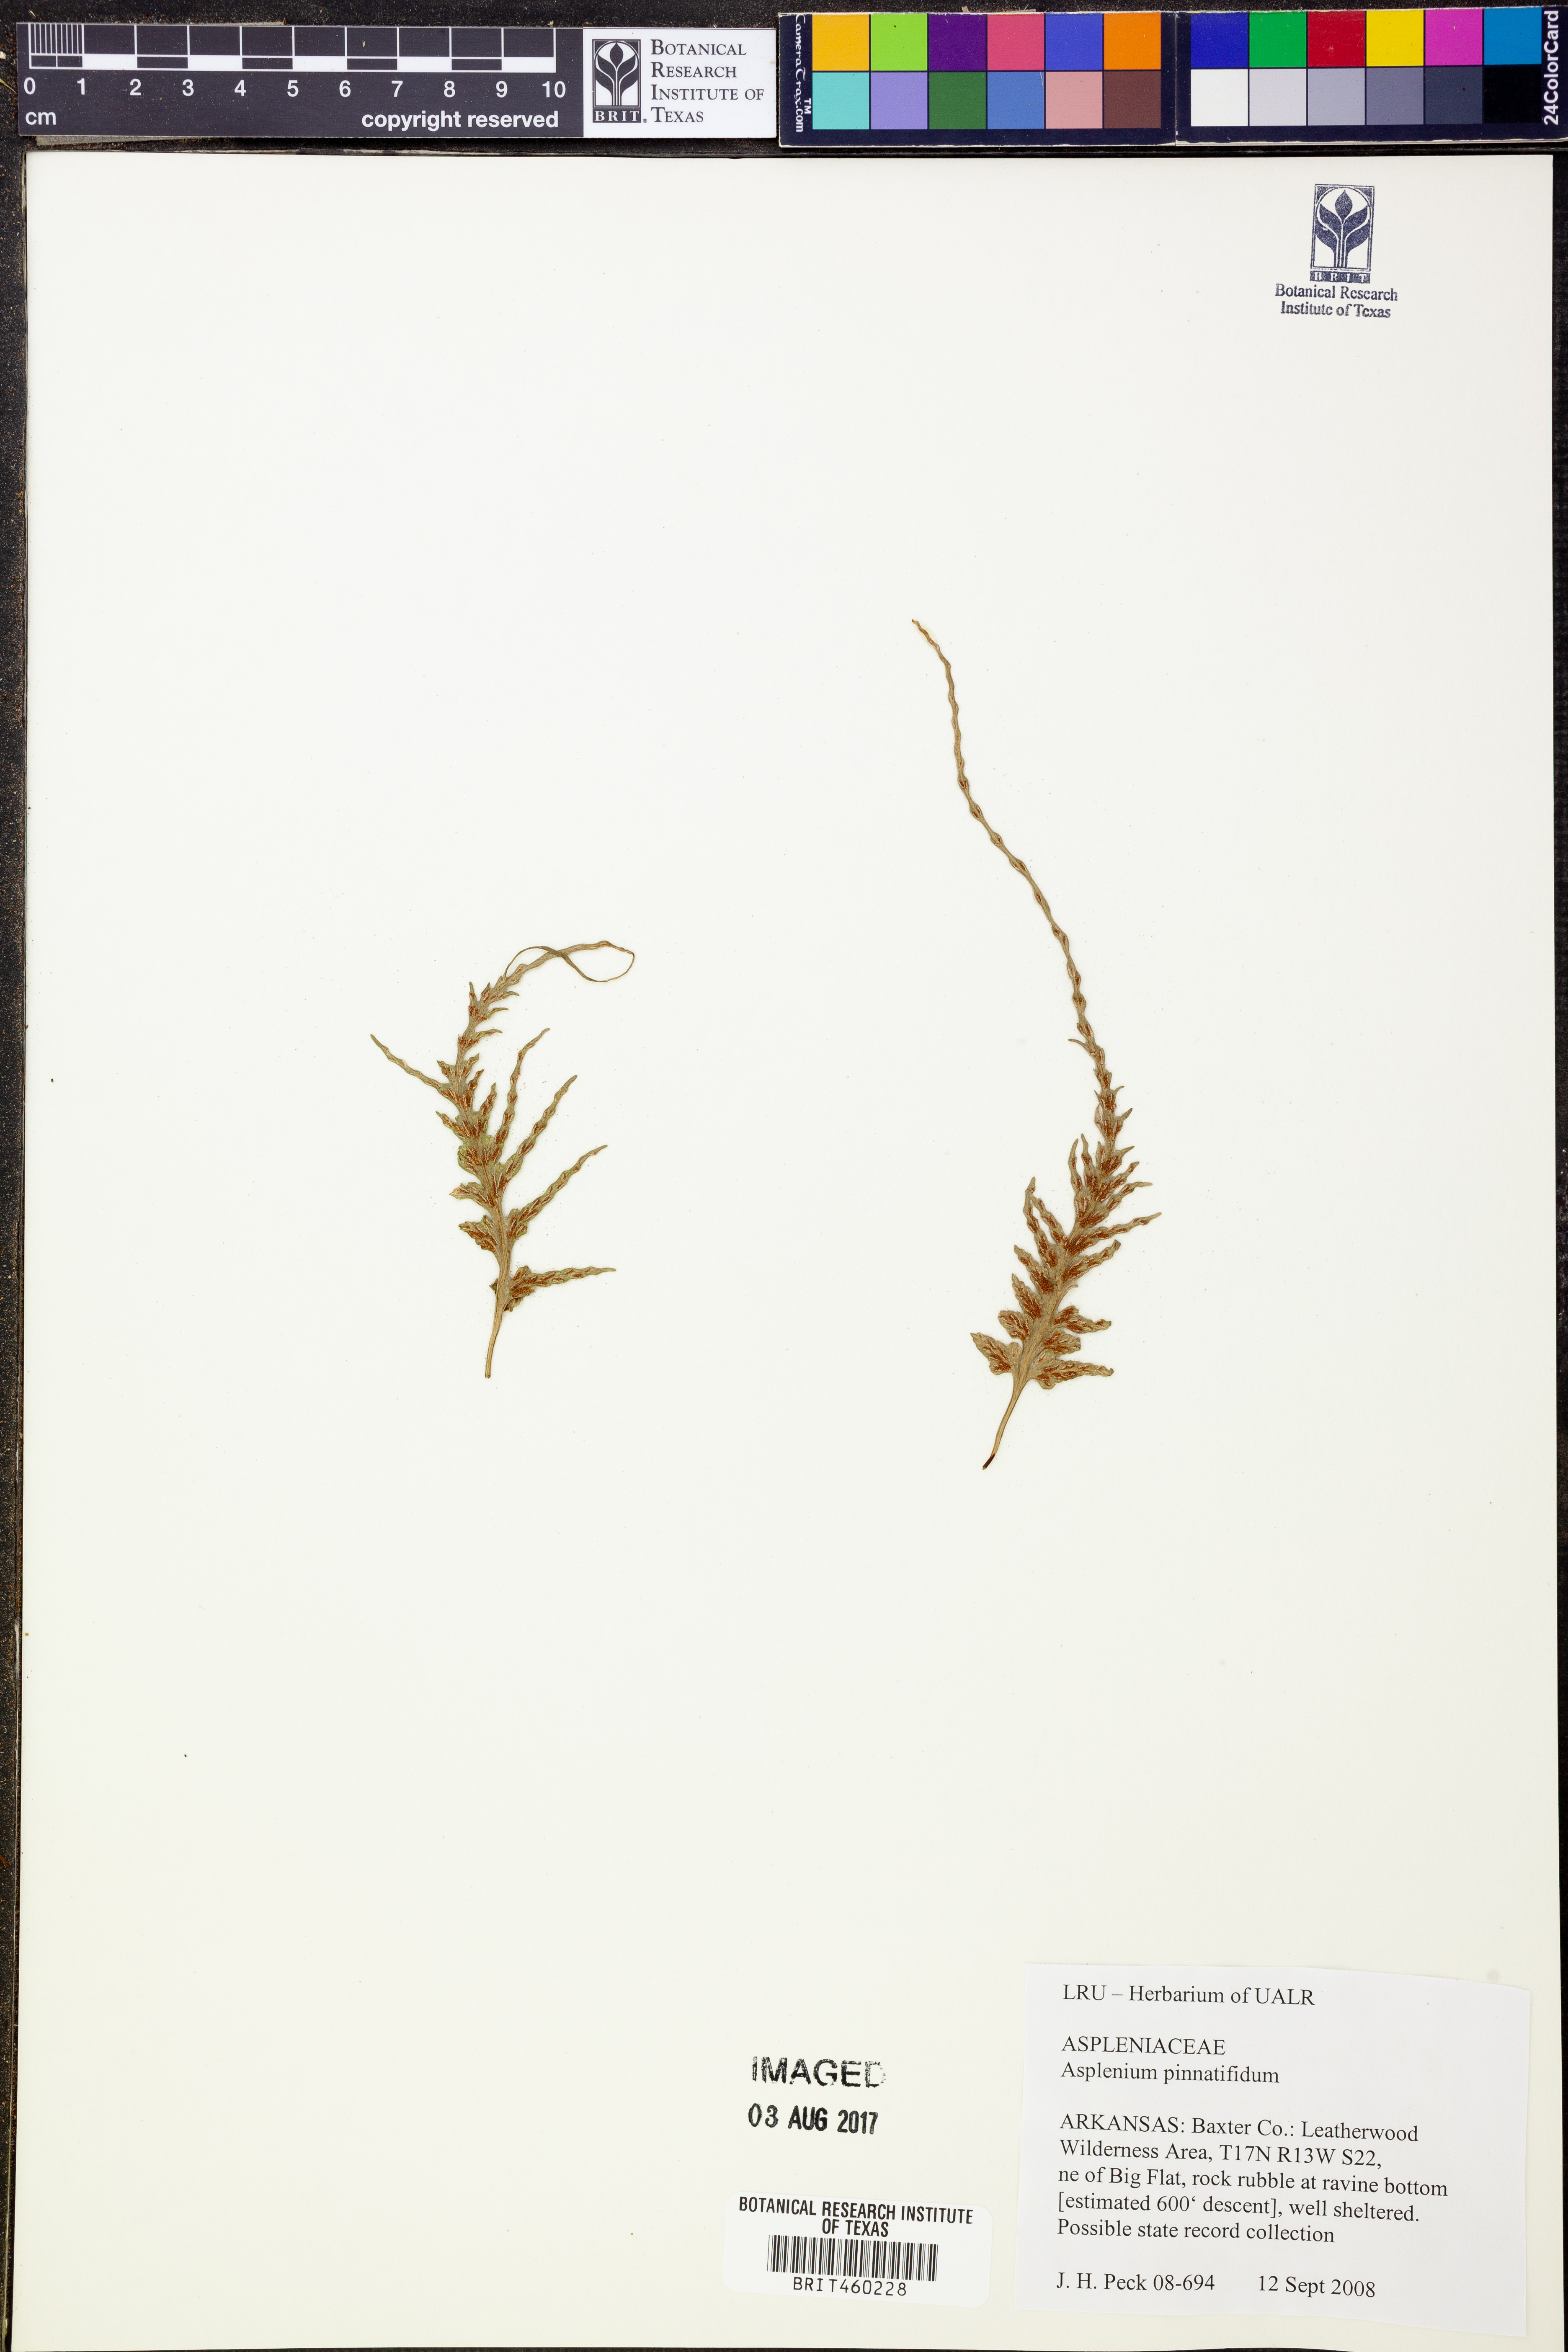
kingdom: Plantae
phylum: Tracheophyta
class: Polypodiopsida
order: Polypodiales
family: Aspleniaceae
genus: Asplenium
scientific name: Asplenium pinnatifidum
